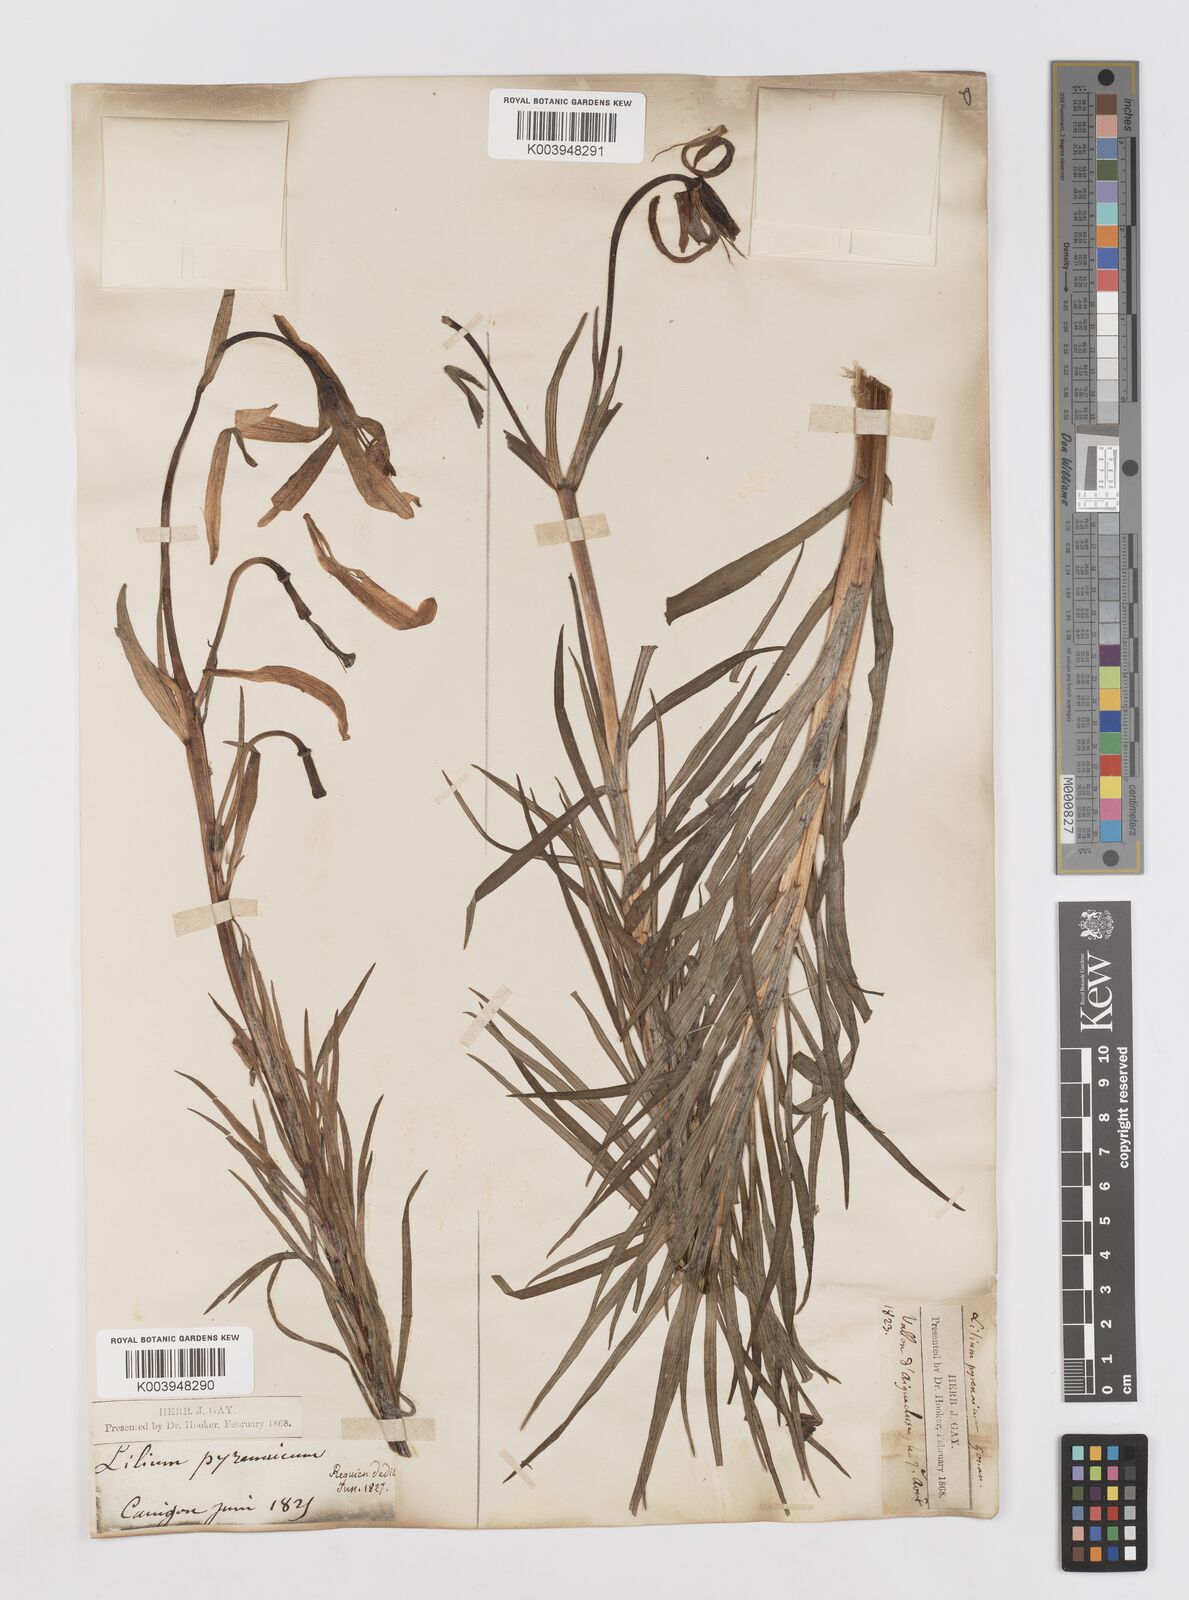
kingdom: Plantae
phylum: Tracheophyta
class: Liliopsida
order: Liliales
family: Liliaceae
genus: Lilium
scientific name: Lilium pyrenaicum
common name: Pyrenean lily
